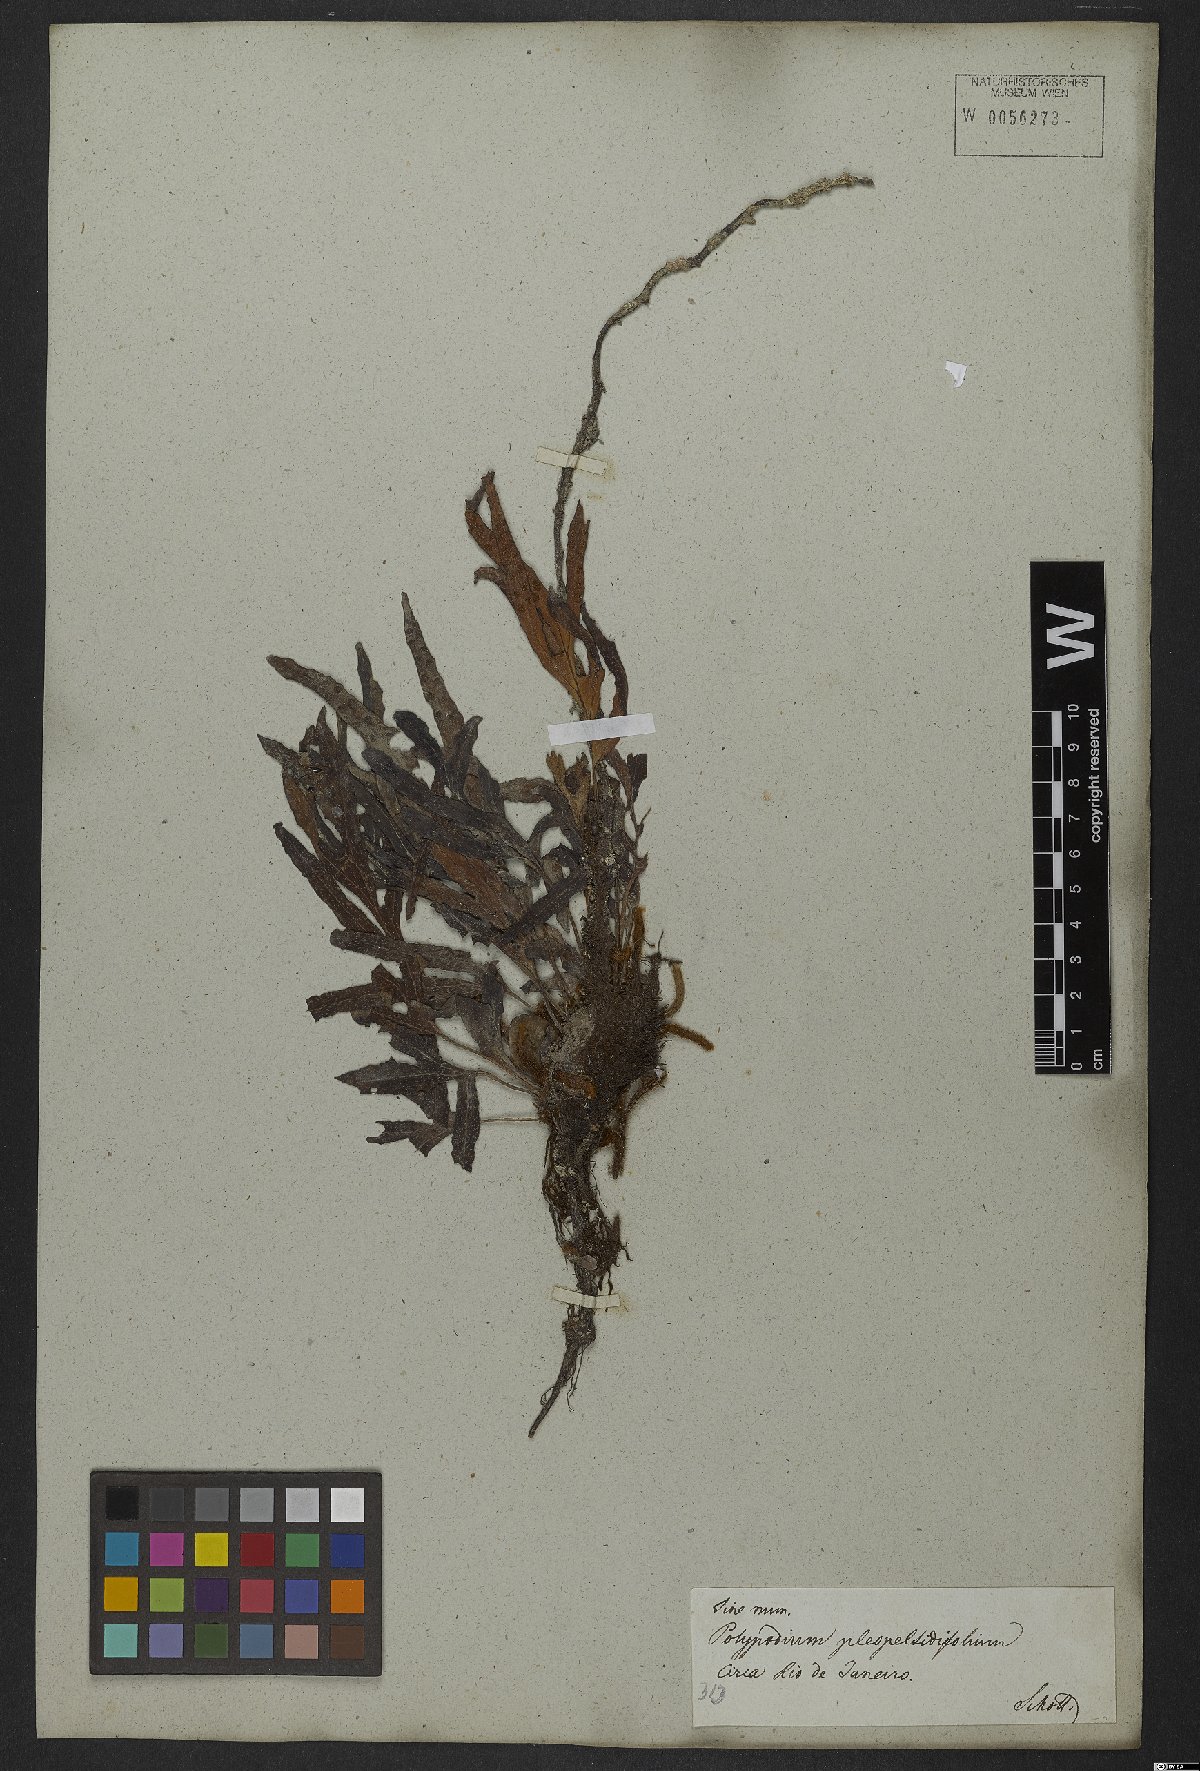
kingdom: Plantae
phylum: Tracheophyta
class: Polypodiopsida
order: Polypodiales
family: Polypodiaceae
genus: Pleopeltis
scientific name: Pleopeltis angusta
